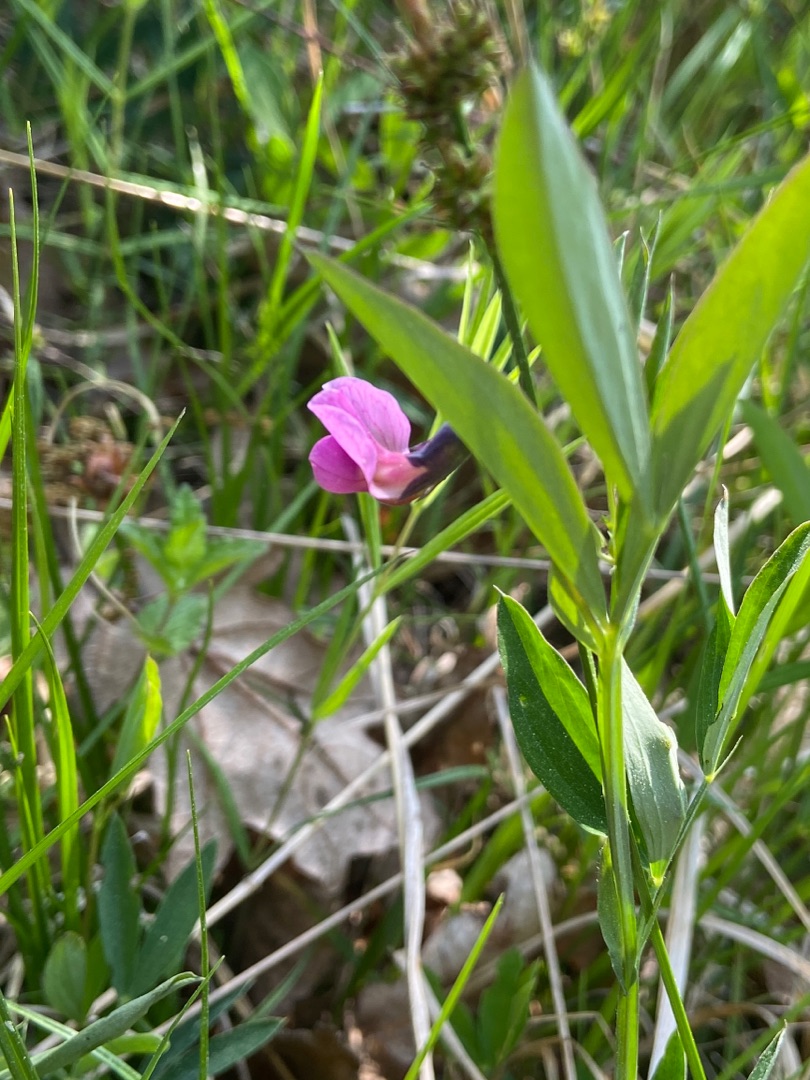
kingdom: Plantae
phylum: Tracheophyta
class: Magnoliopsida
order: Fabales
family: Fabaceae
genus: Lathyrus
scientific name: Lathyrus linifolius
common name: Krat-fladbælg
